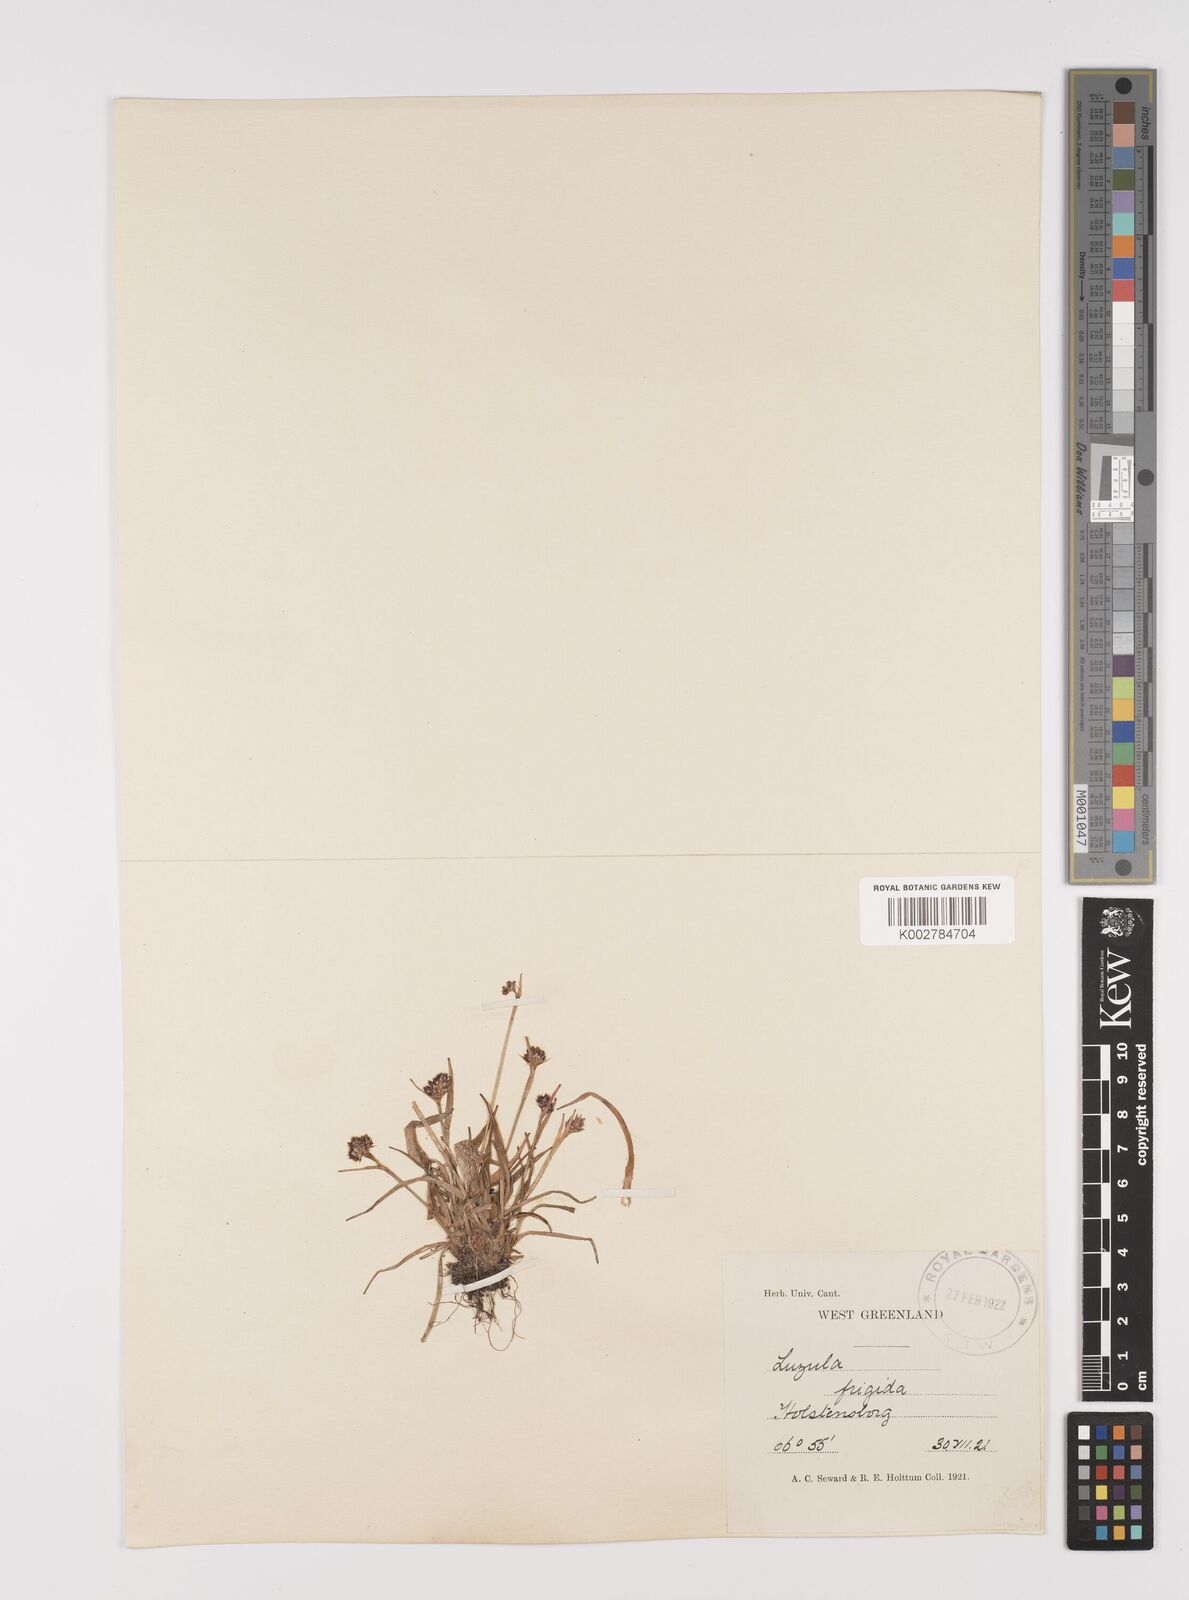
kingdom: Plantae
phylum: Tracheophyta
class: Liliopsida
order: Poales
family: Juncaceae
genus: Luzula
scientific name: Luzula multiflora
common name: Heath wood-rush
